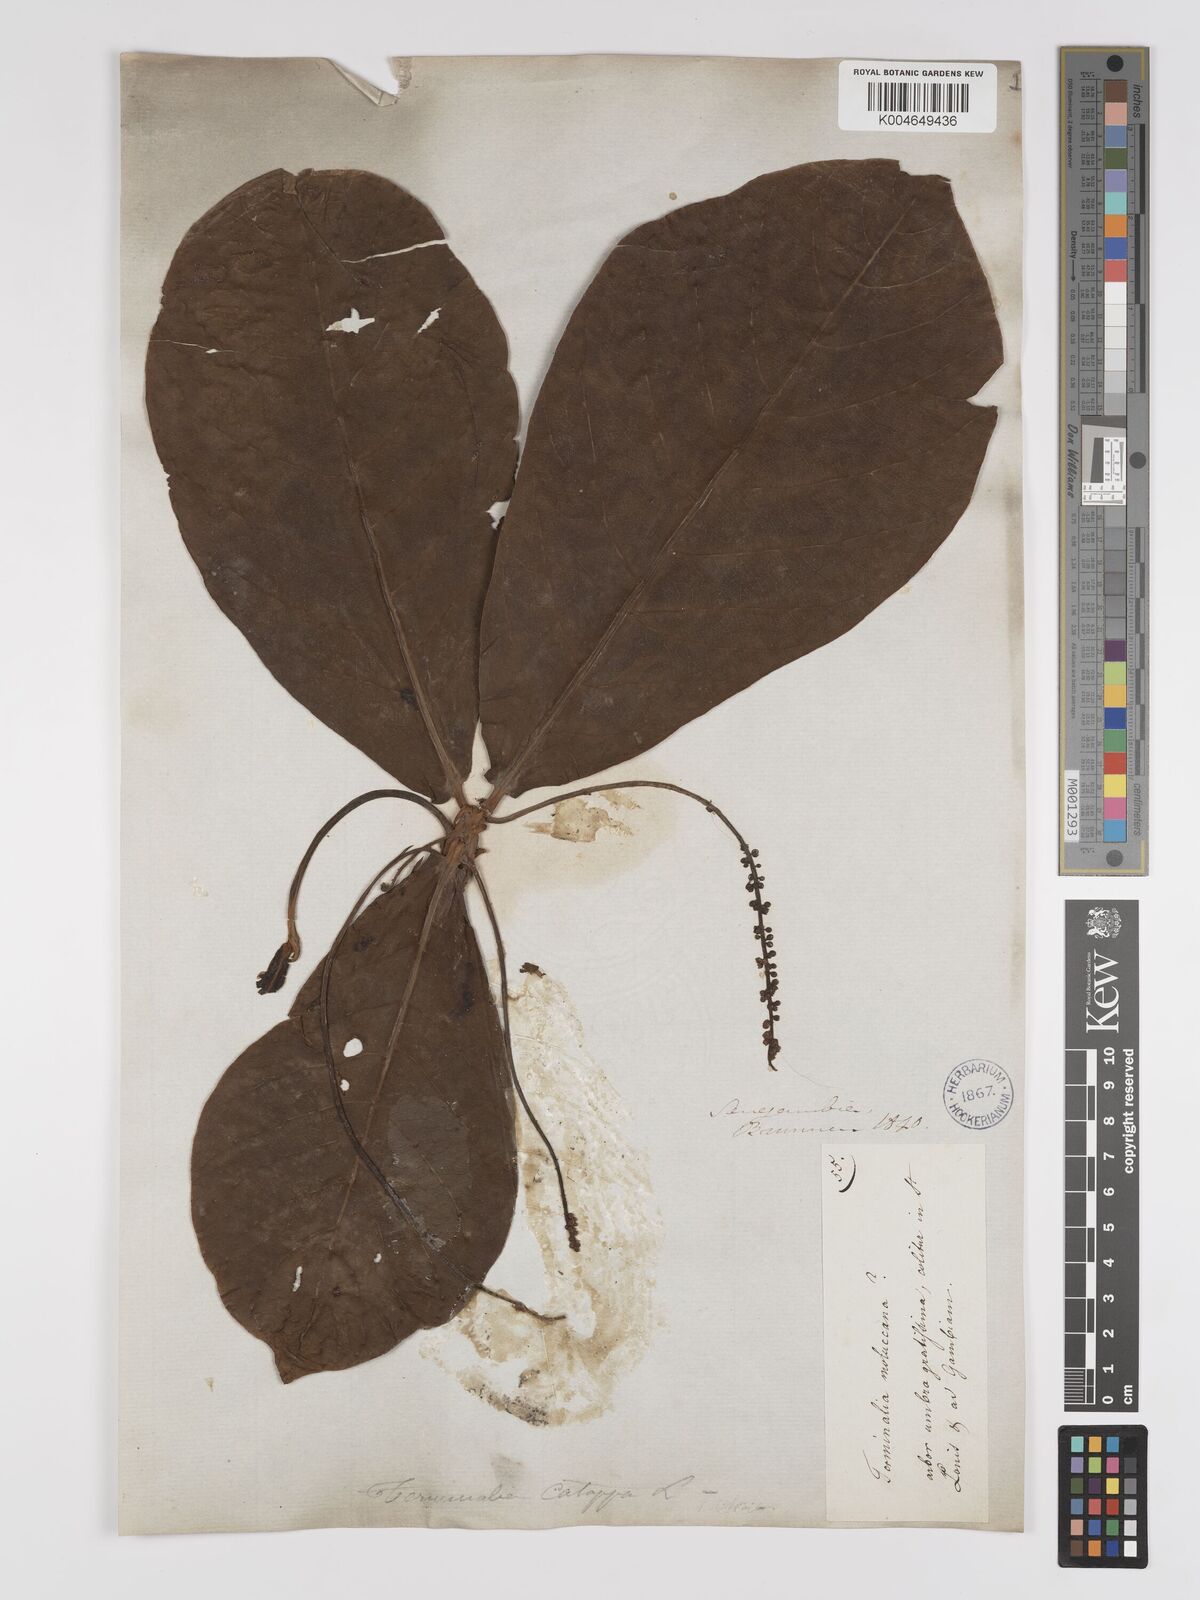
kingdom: Plantae
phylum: Tracheophyta
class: Magnoliopsida
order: Myrtales
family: Combretaceae
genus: Terminalia
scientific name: Terminalia catappa
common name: Tropical almond
